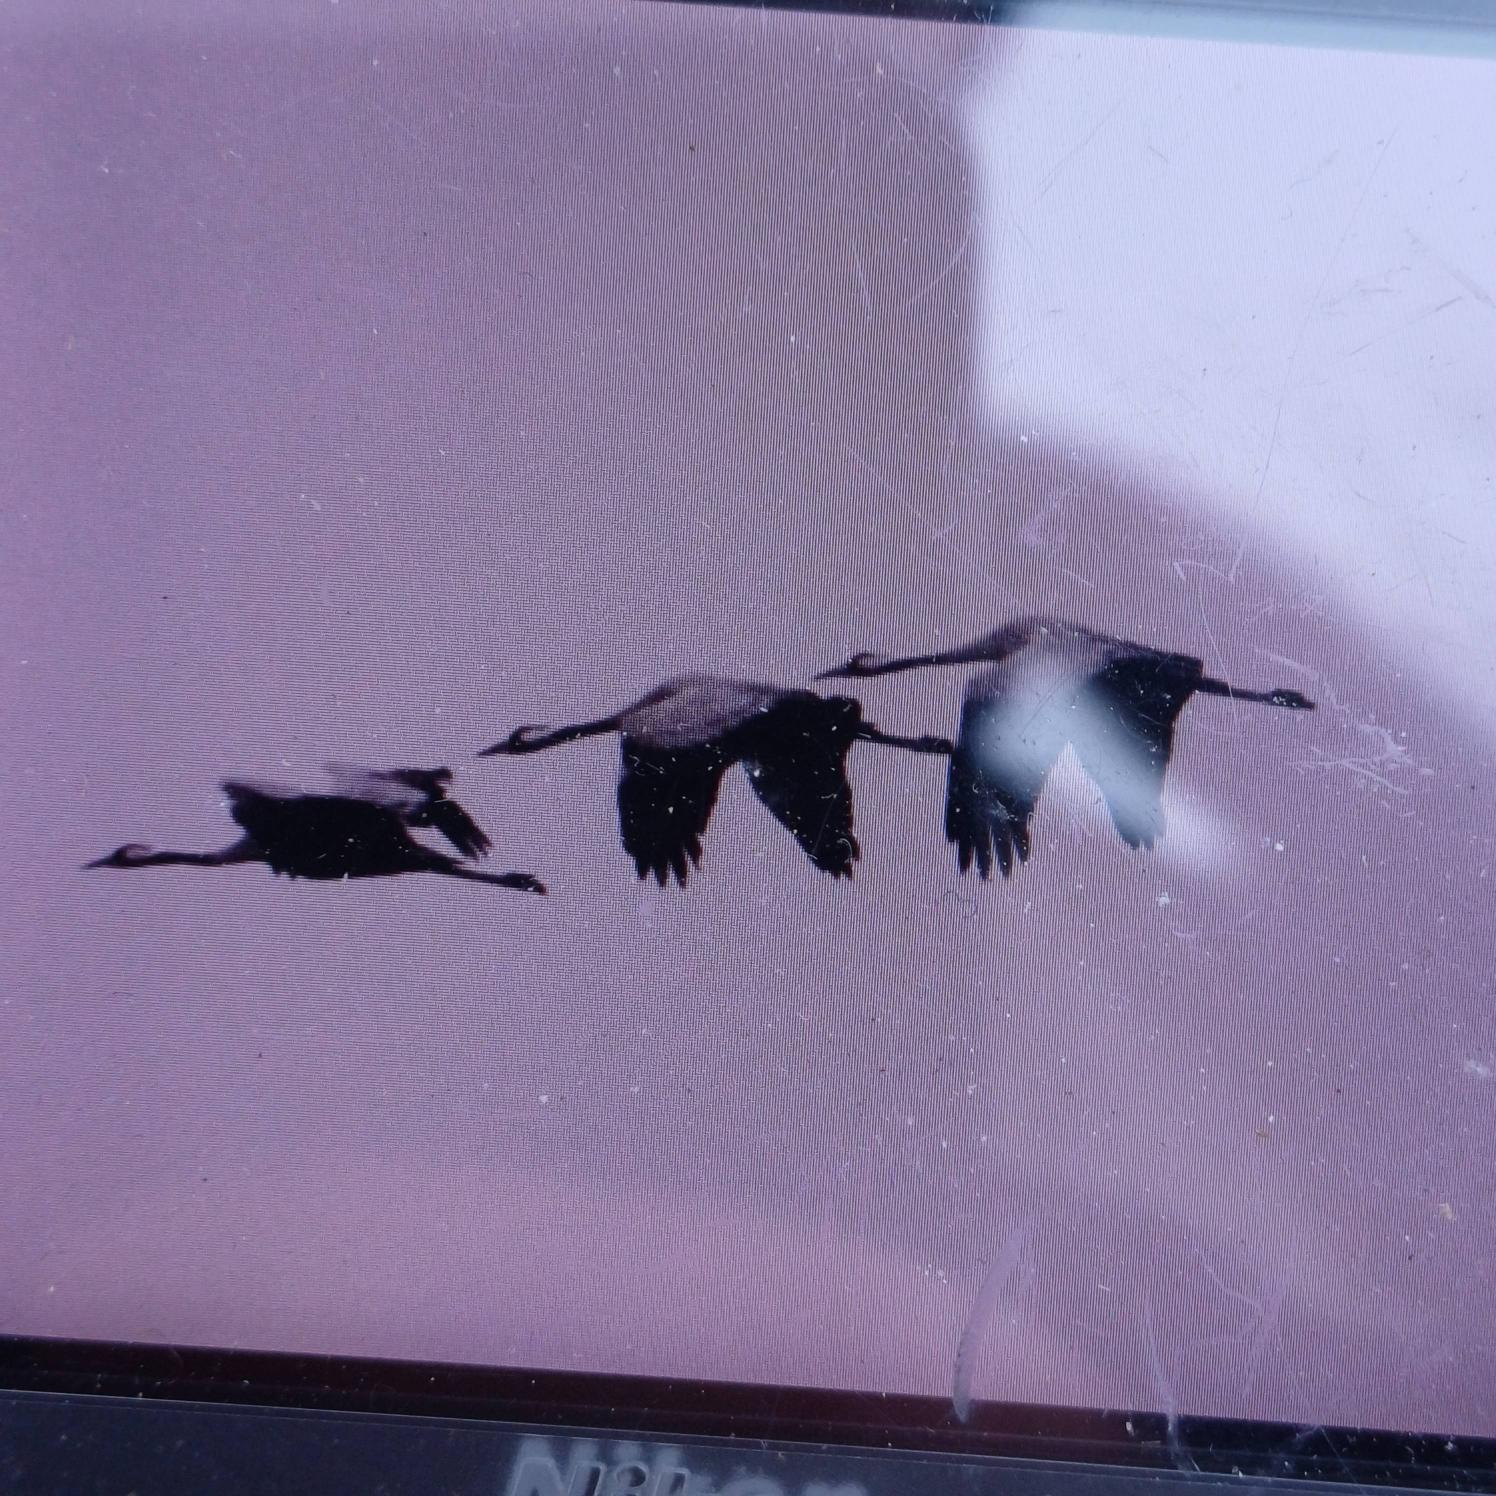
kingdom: Animalia
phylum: Chordata
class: Aves
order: Gruiformes
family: Gruidae
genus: Grus
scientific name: Grus grus
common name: Trane
